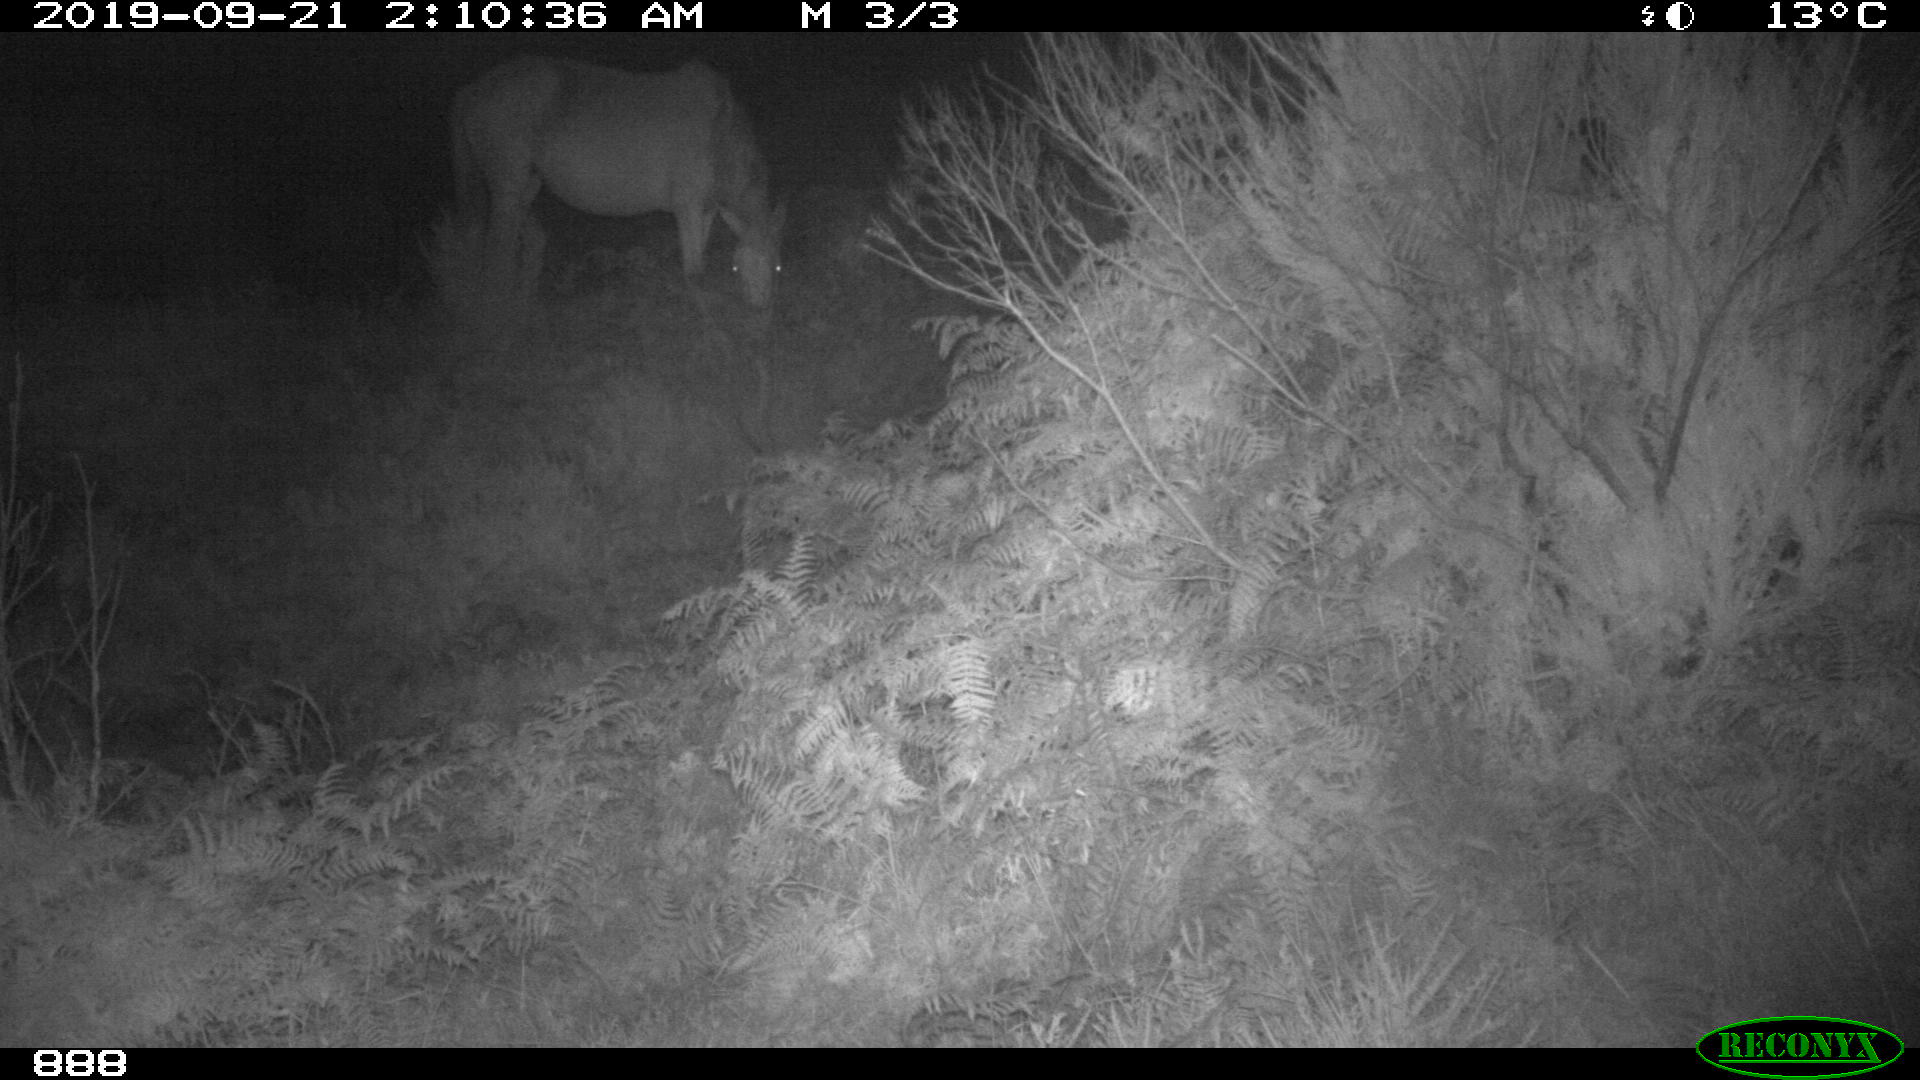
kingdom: Animalia
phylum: Chordata
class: Mammalia
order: Perissodactyla
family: Equidae
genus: Equus
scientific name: Equus caballus
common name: Horse
